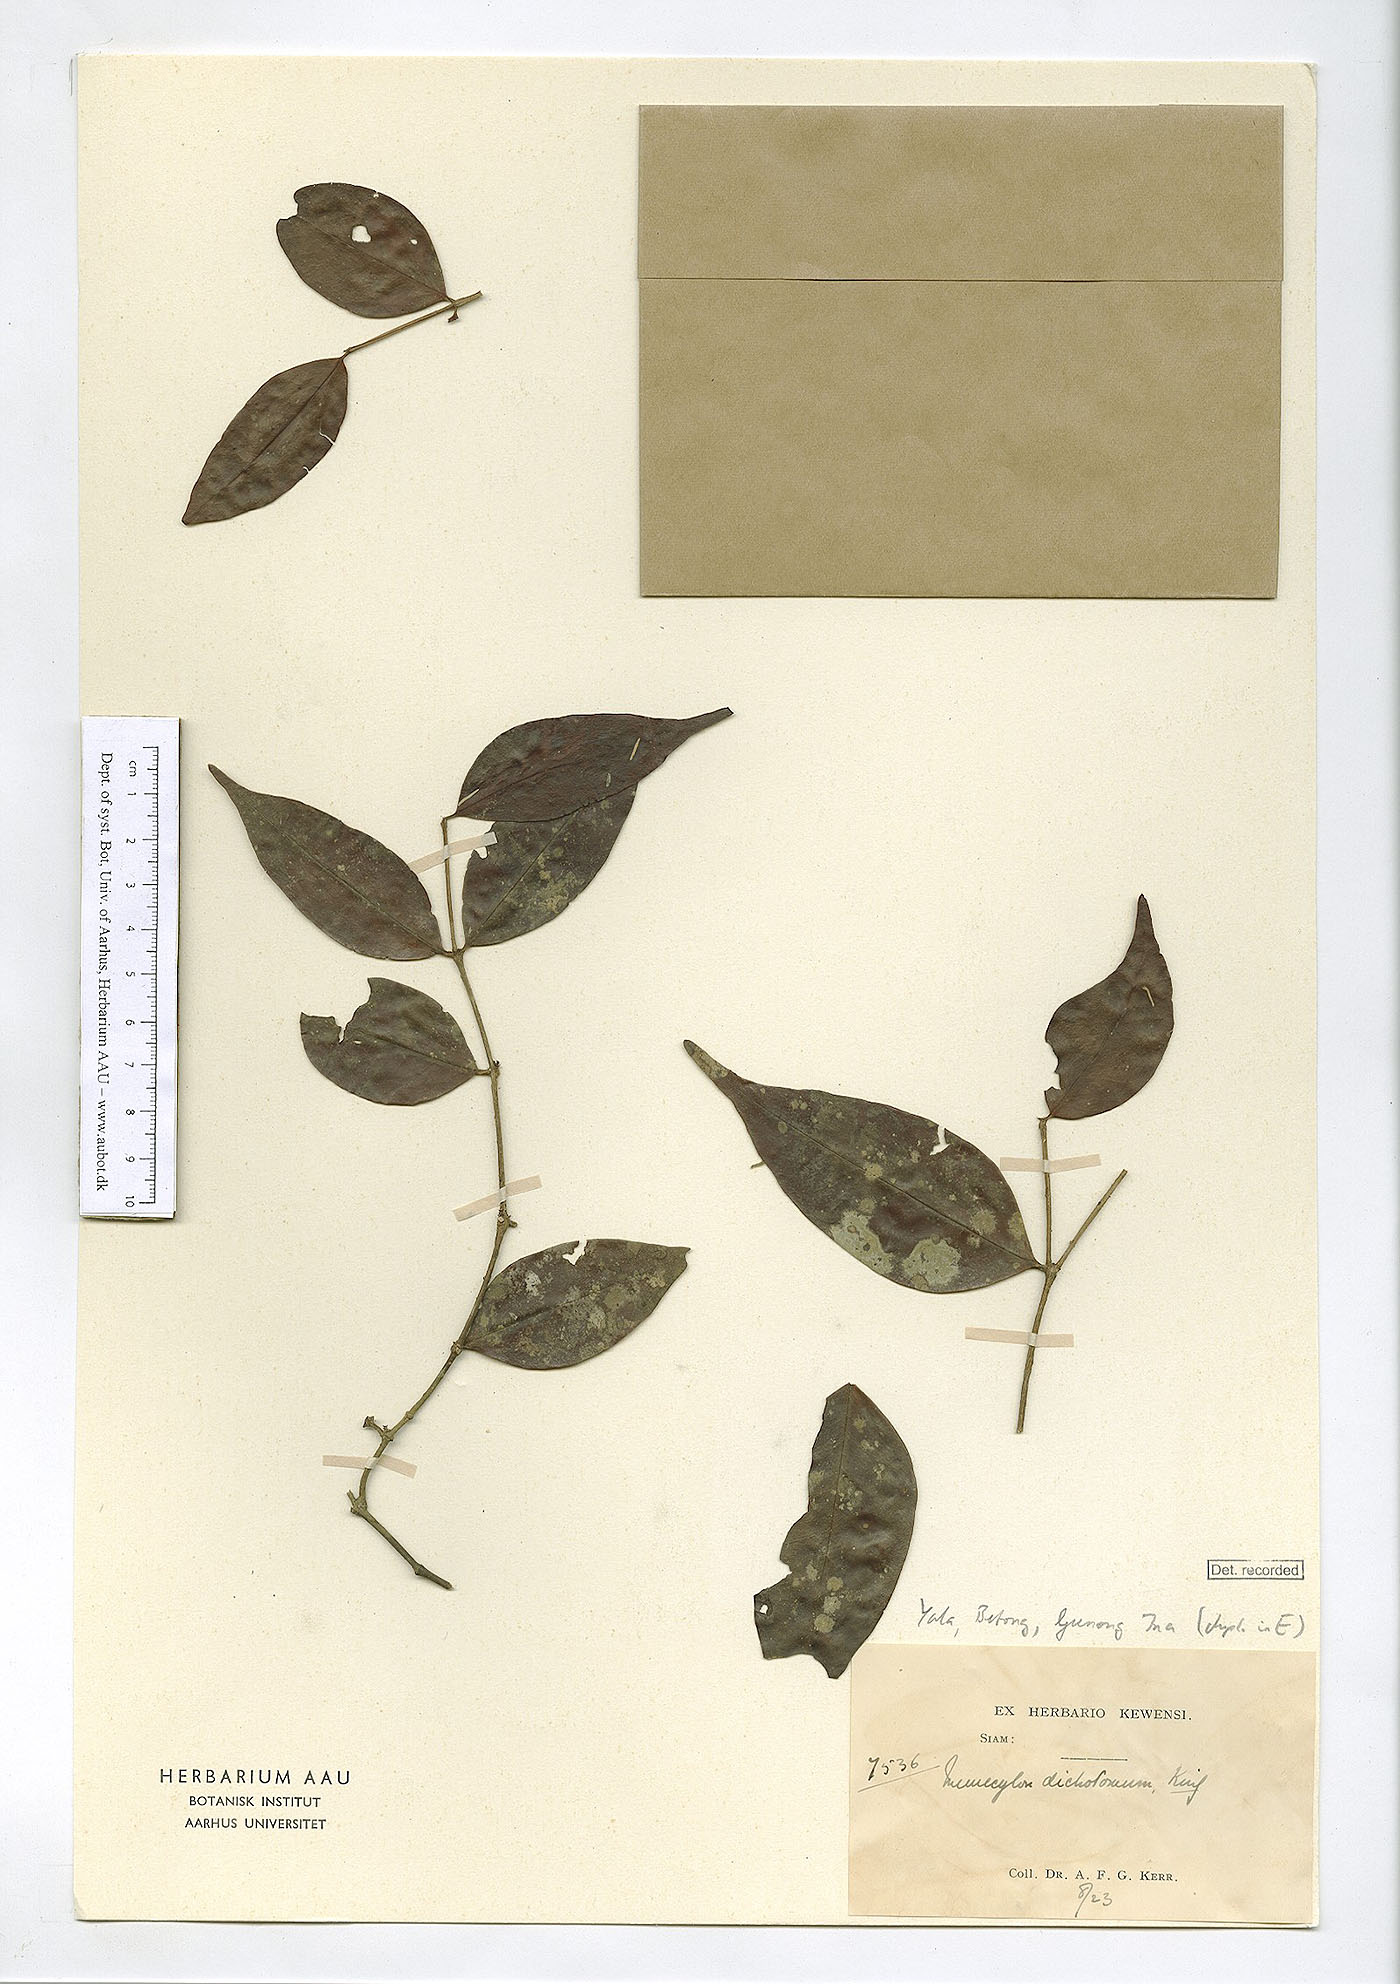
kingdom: Plantae
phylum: Tracheophyta
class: Magnoliopsida
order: Myrtales
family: Melastomataceae
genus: Memecylon
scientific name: Memecylon dichotomum
